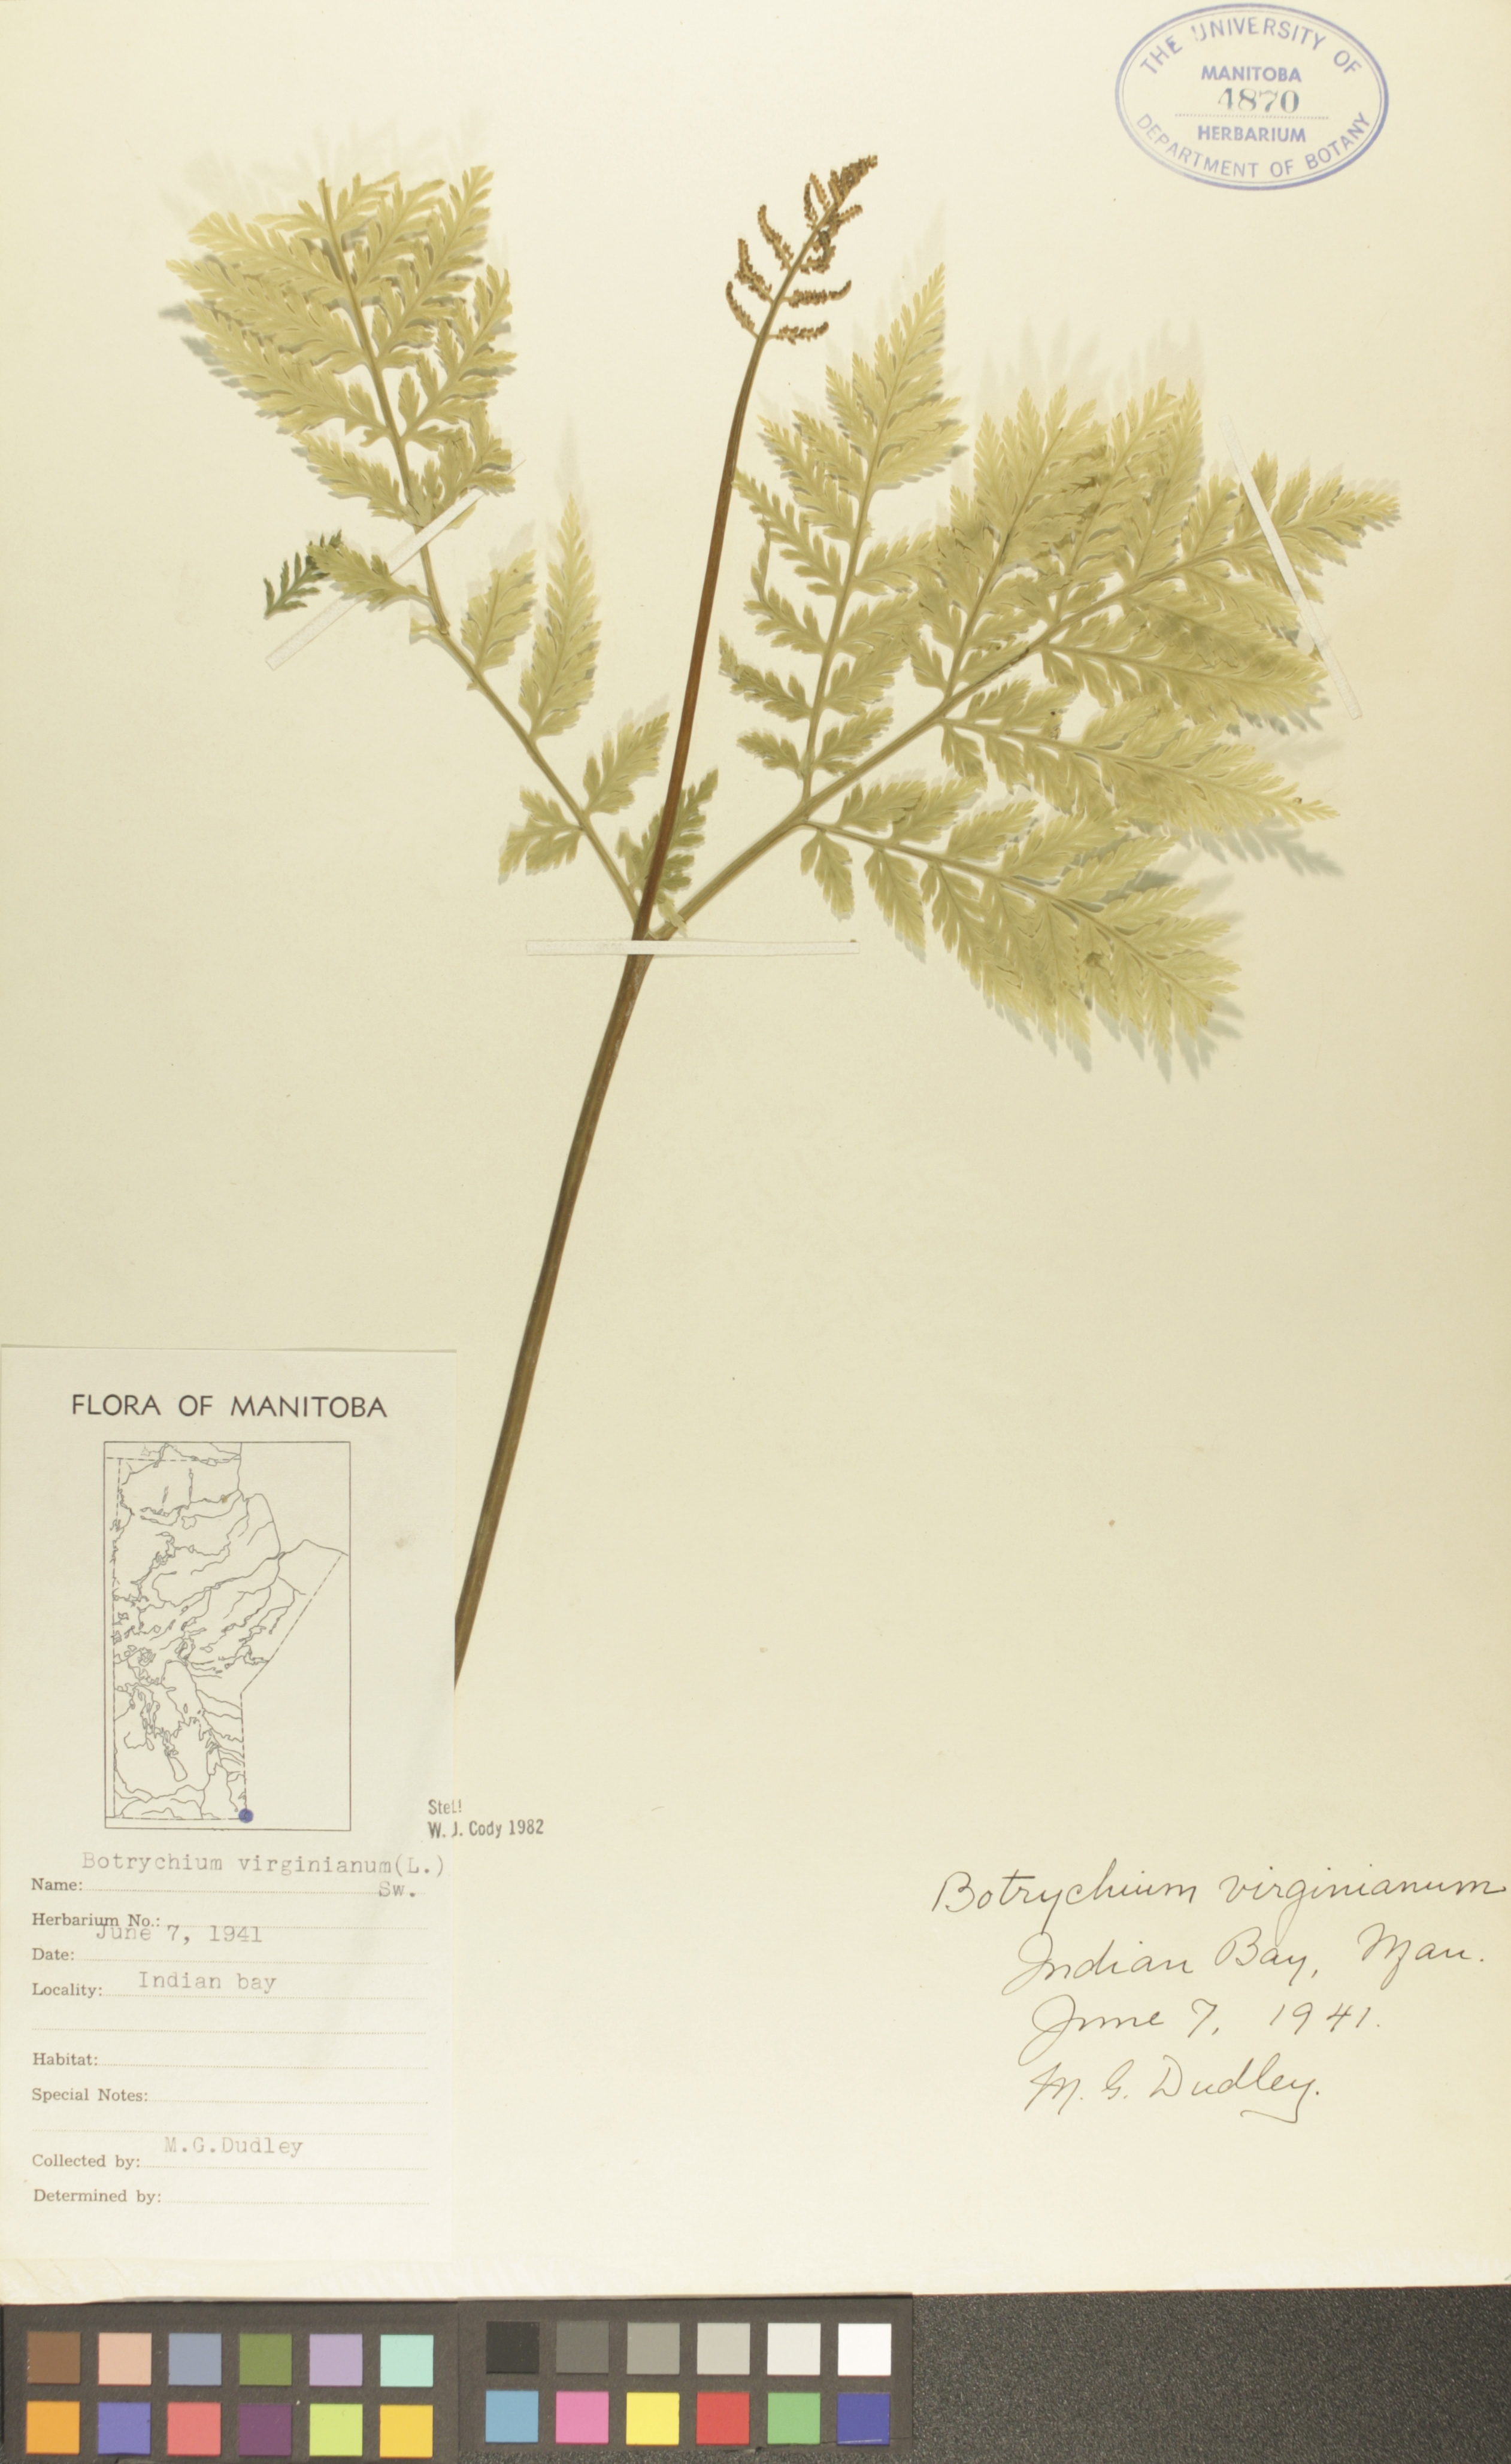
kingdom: Plantae
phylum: Tracheophyta
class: Polypodiopsida
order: Ophioglossales
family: Ophioglossaceae
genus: Botrypus
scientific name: Botrypus virginianus
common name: Common grapefern
